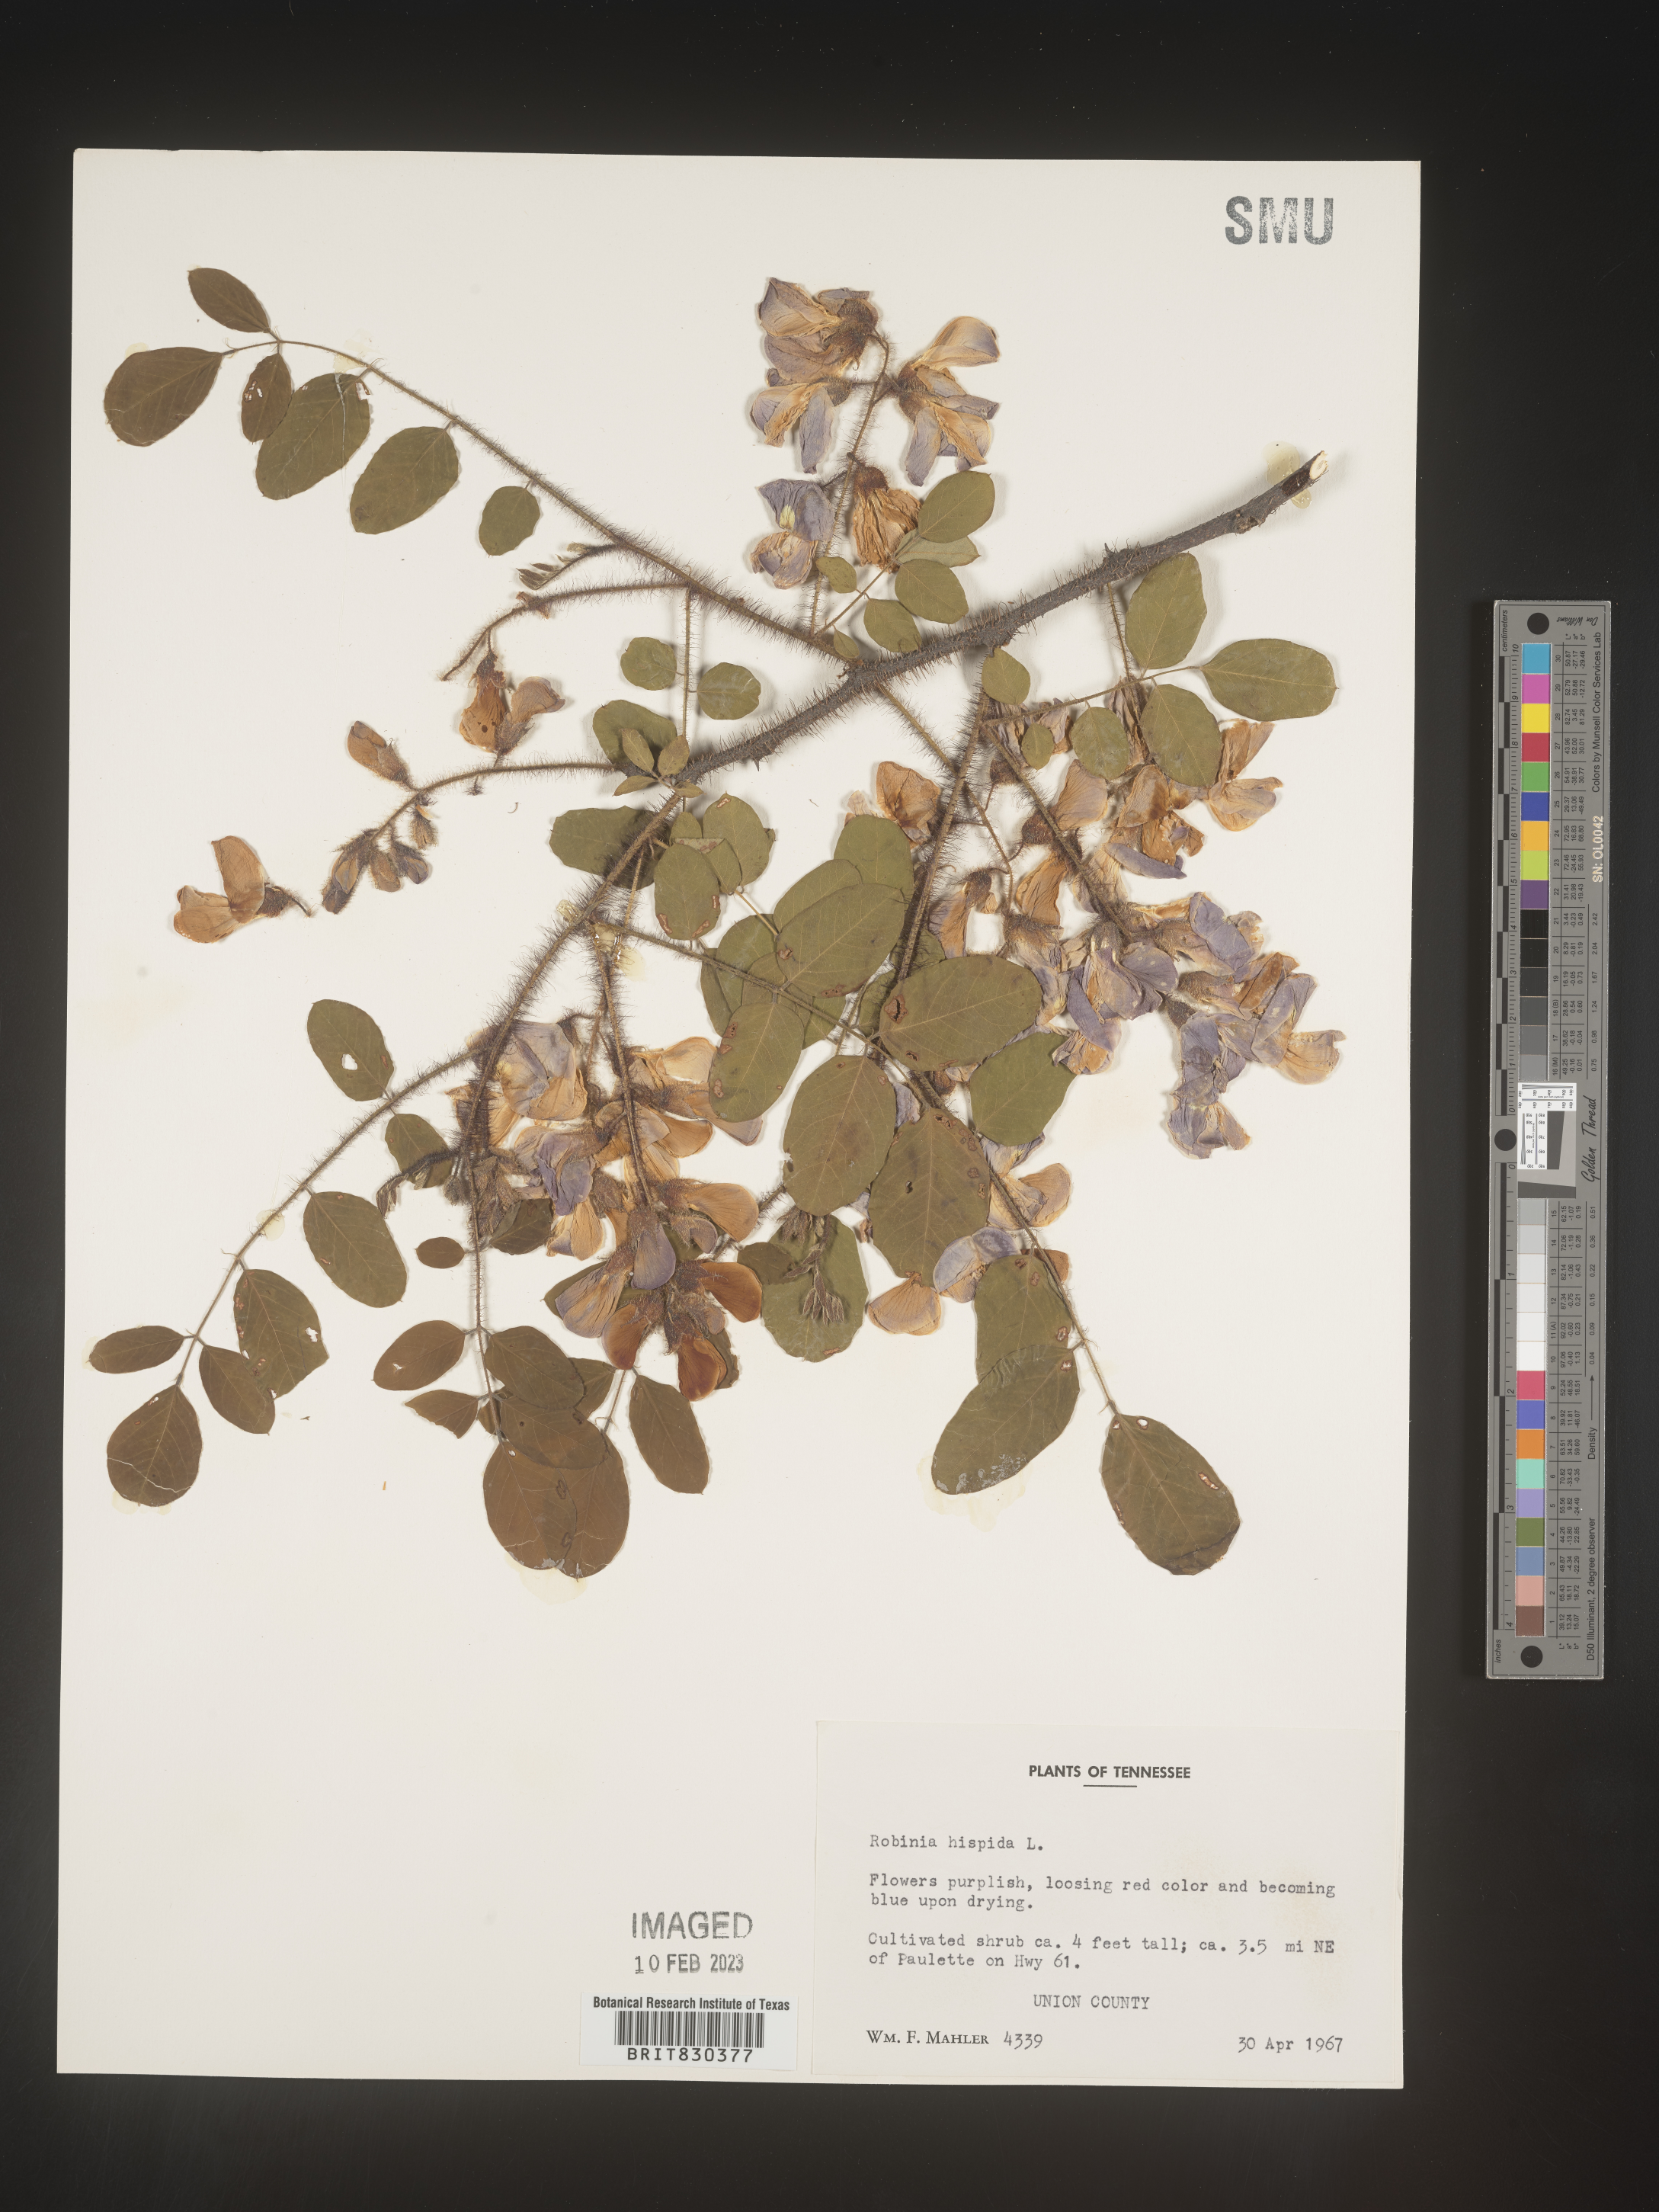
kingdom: Plantae
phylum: Tracheophyta
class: Magnoliopsida
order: Fabales
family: Fabaceae
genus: Robinia
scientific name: Robinia hispida
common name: Bristly locust
